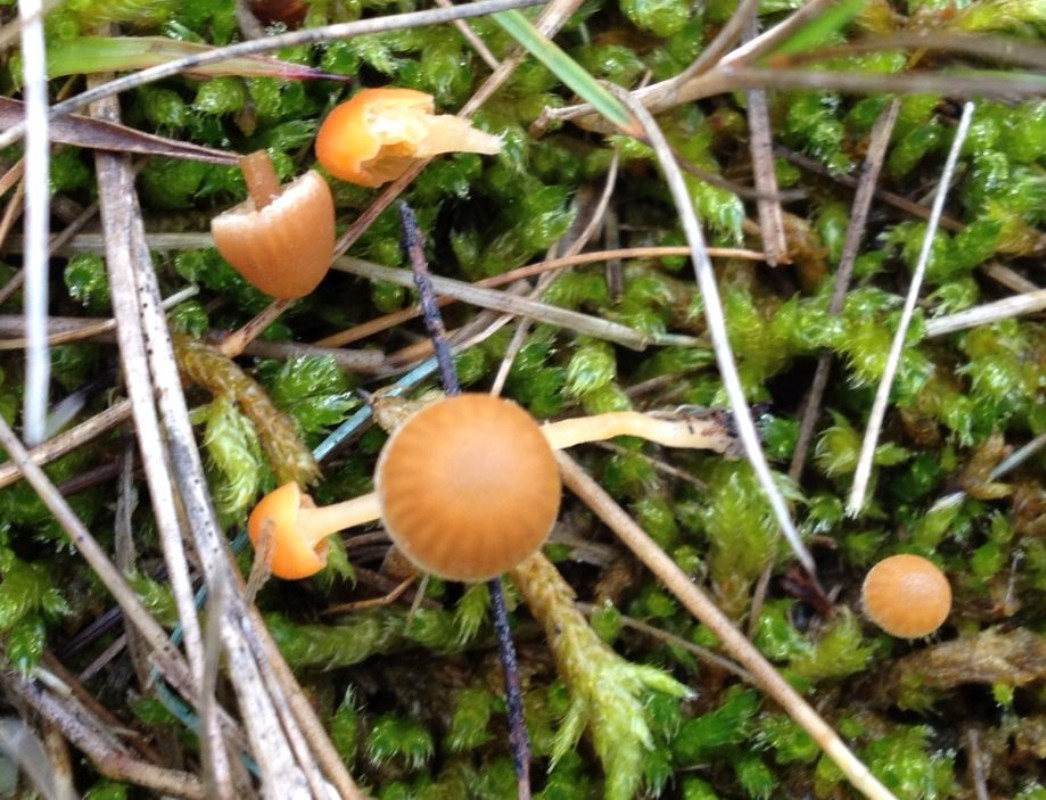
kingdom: Fungi
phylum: Basidiomycota
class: Agaricomycetes
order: Agaricales
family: Hymenogastraceae
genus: Galerina
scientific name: Galerina
